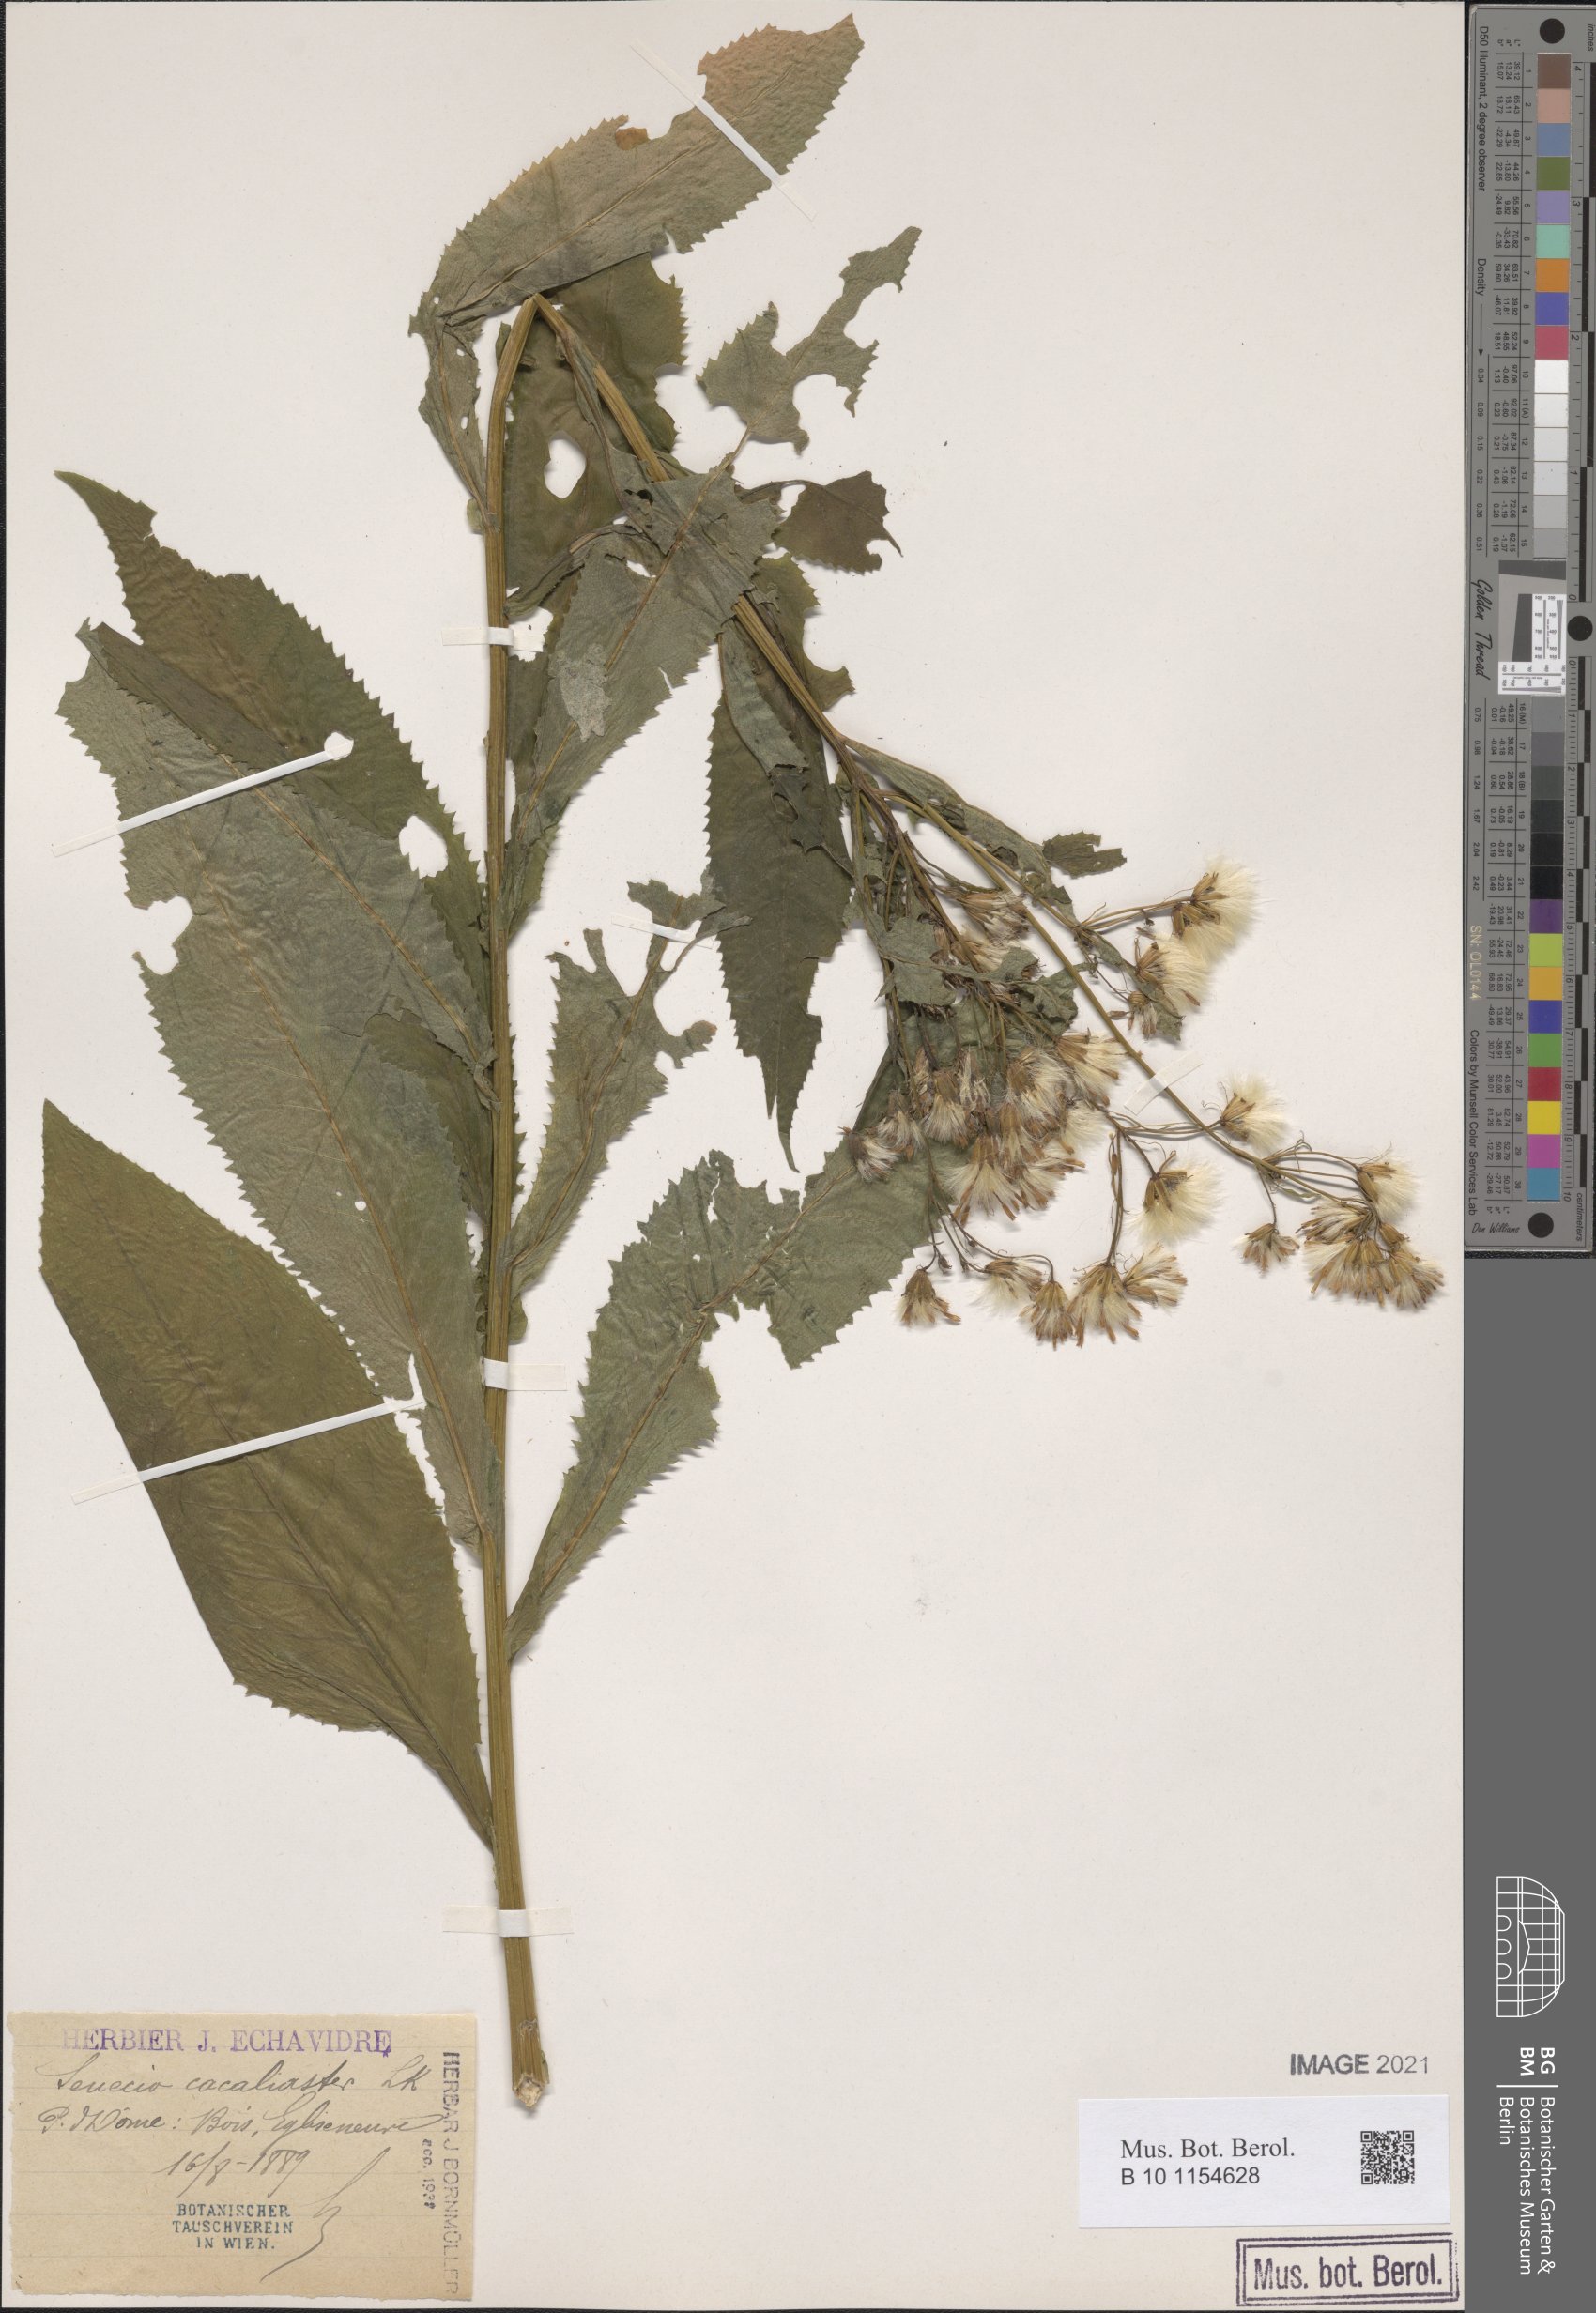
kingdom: Plantae
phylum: Tracheophyta
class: Magnoliopsida
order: Asterales
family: Asteraceae
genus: Senecio
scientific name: Senecio cacaliaster
